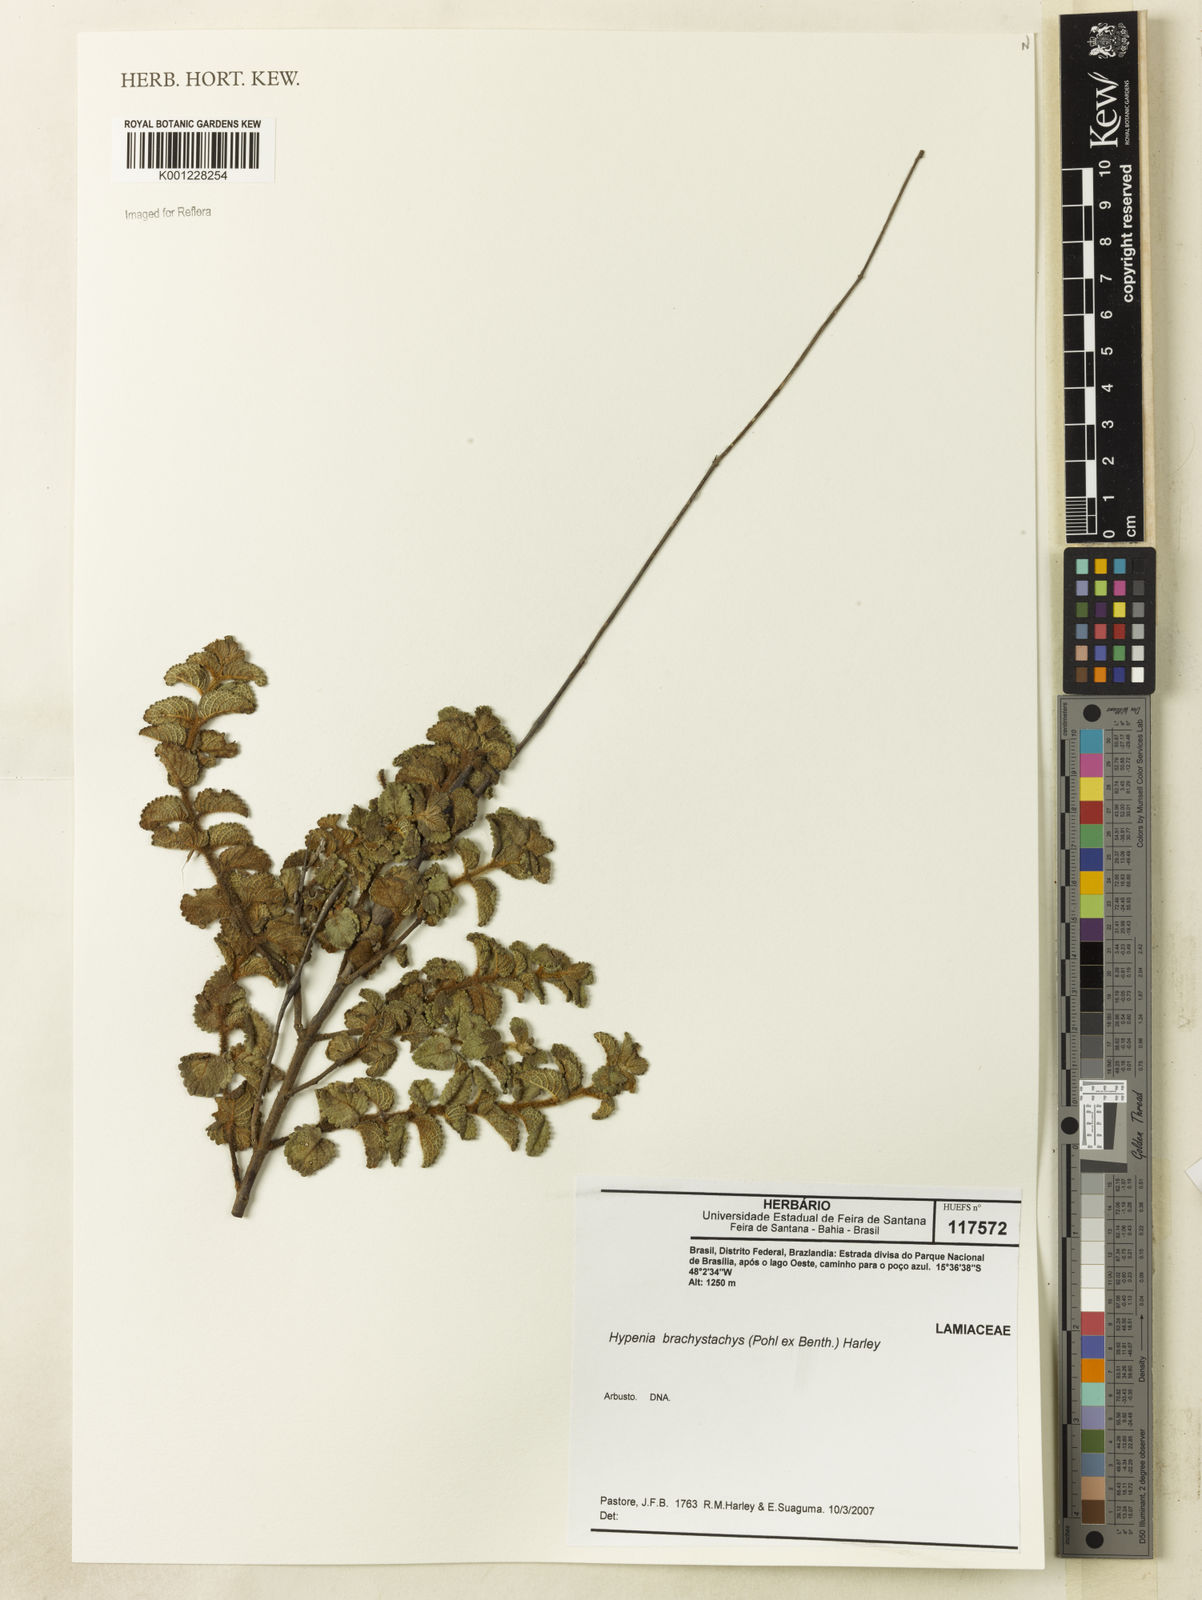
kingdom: Plantae
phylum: Tracheophyta
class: Magnoliopsida
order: Lamiales
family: Lamiaceae
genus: Hypenia
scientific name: Hypenia brachystachys
